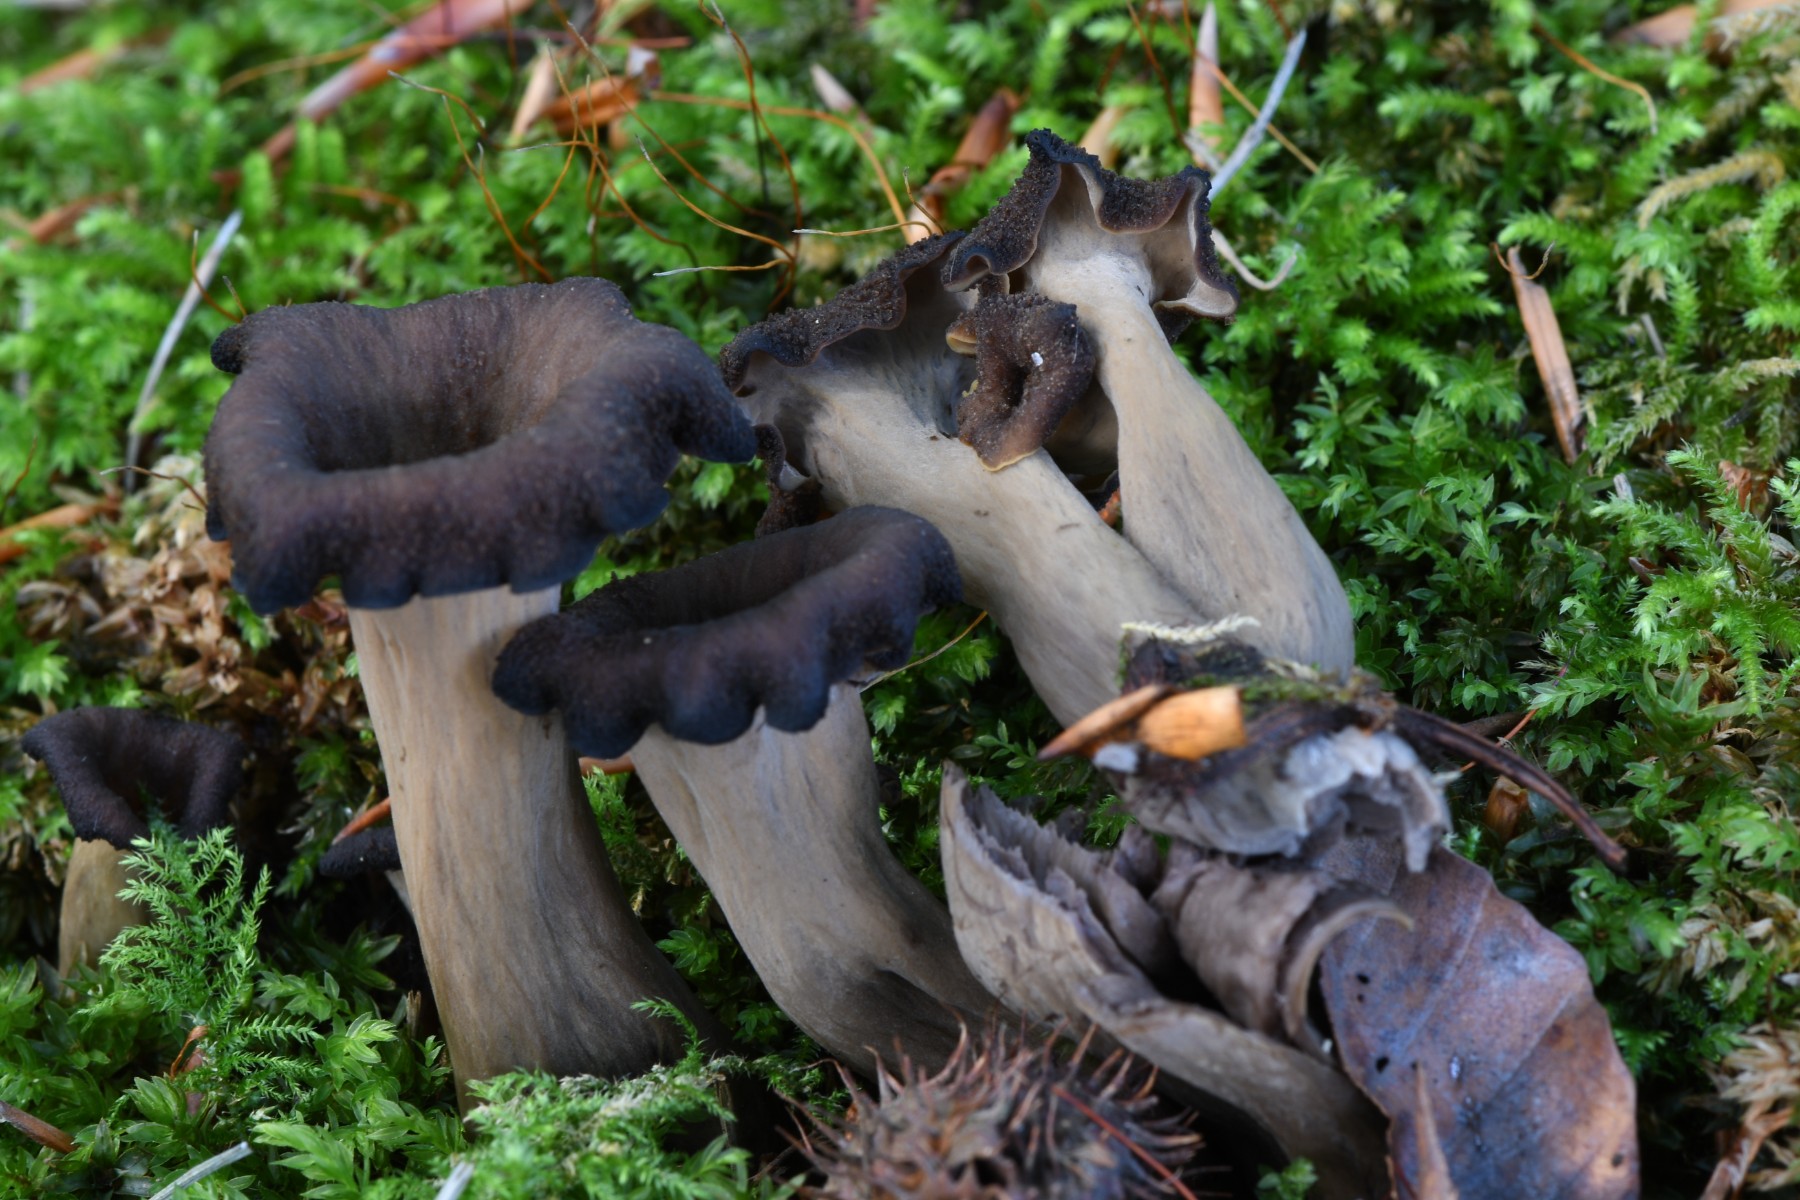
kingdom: Fungi
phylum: Basidiomycota
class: Agaricomycetes
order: Cantharellales
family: Hydnaceae
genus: Craterellus
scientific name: Craterellus cornucopioides
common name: trompetsvamp
